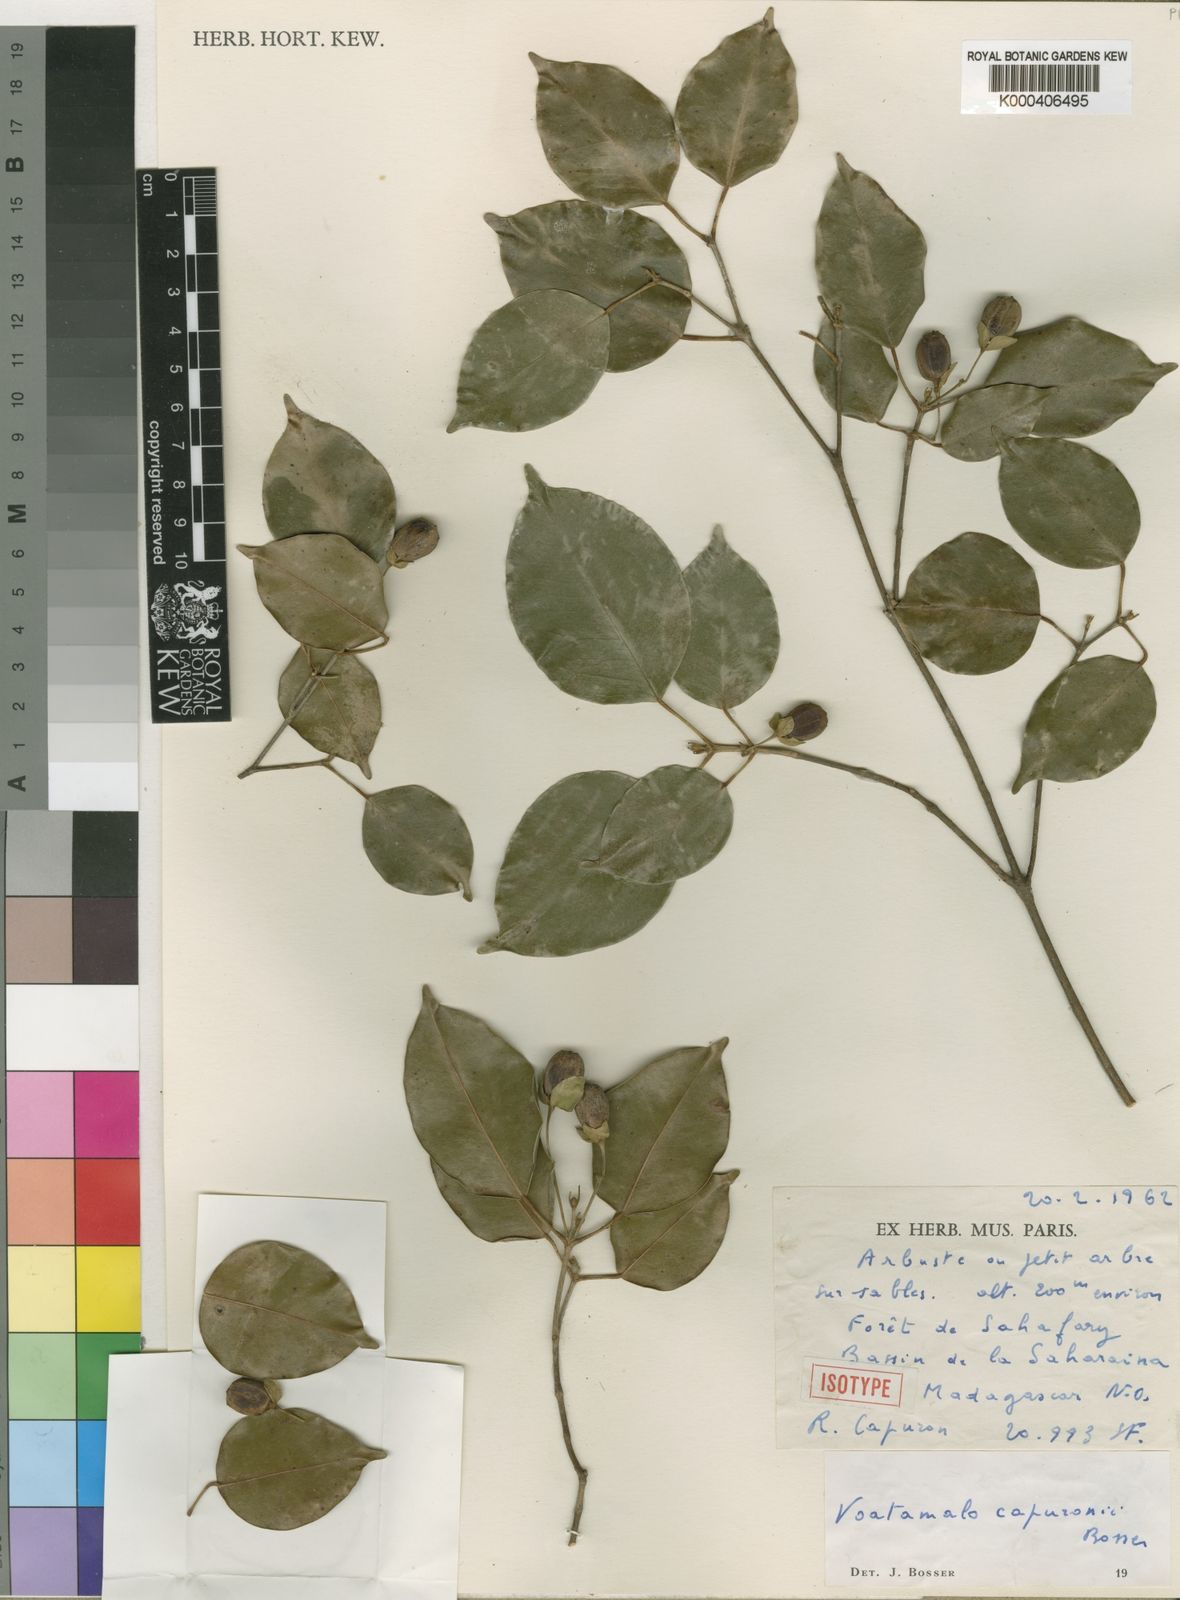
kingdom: Plantae
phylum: Tracheophyta
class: Magnoliopsida
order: Malpighiales
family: Picrodendraceae
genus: Voatamalo
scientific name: Voatamalo capuronii
